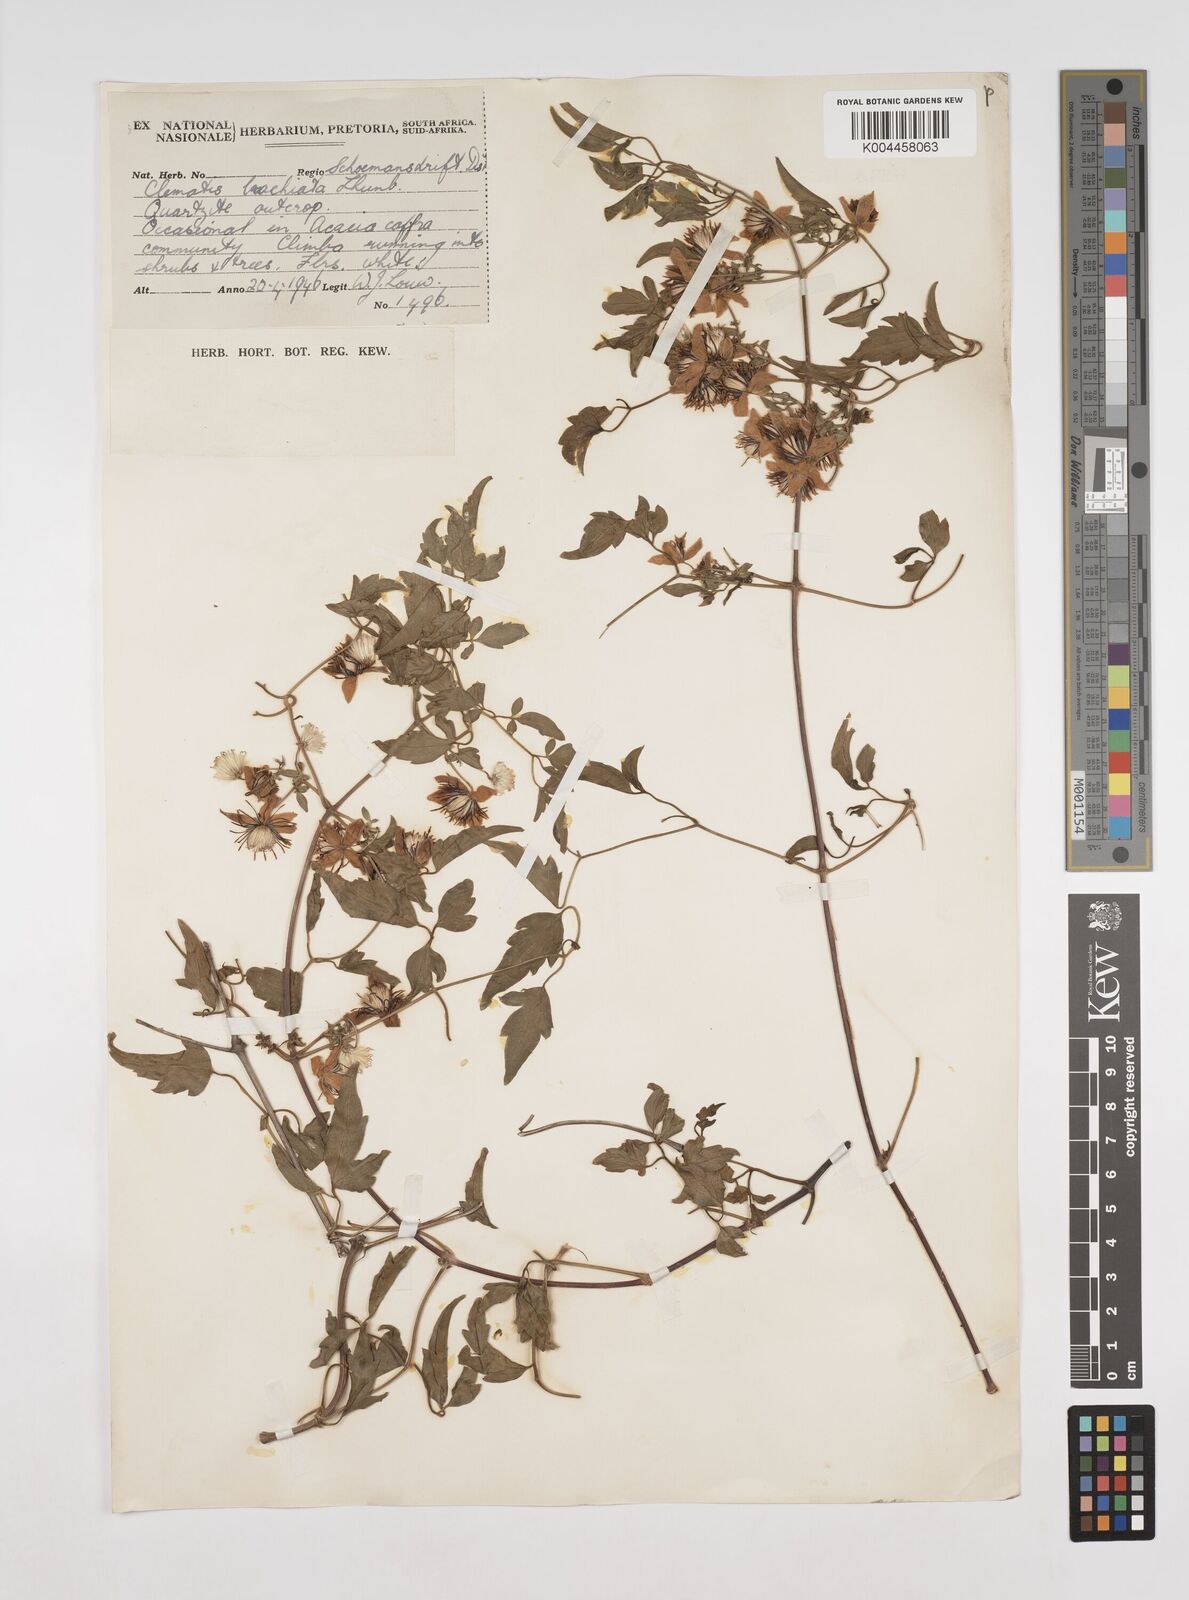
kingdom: Plantae
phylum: Tracheophyta
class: Magnoliopsida
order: Ranunculales
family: Ranunculaceae
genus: Clematis
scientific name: Clematis brachiata
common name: Traveler's-joy
